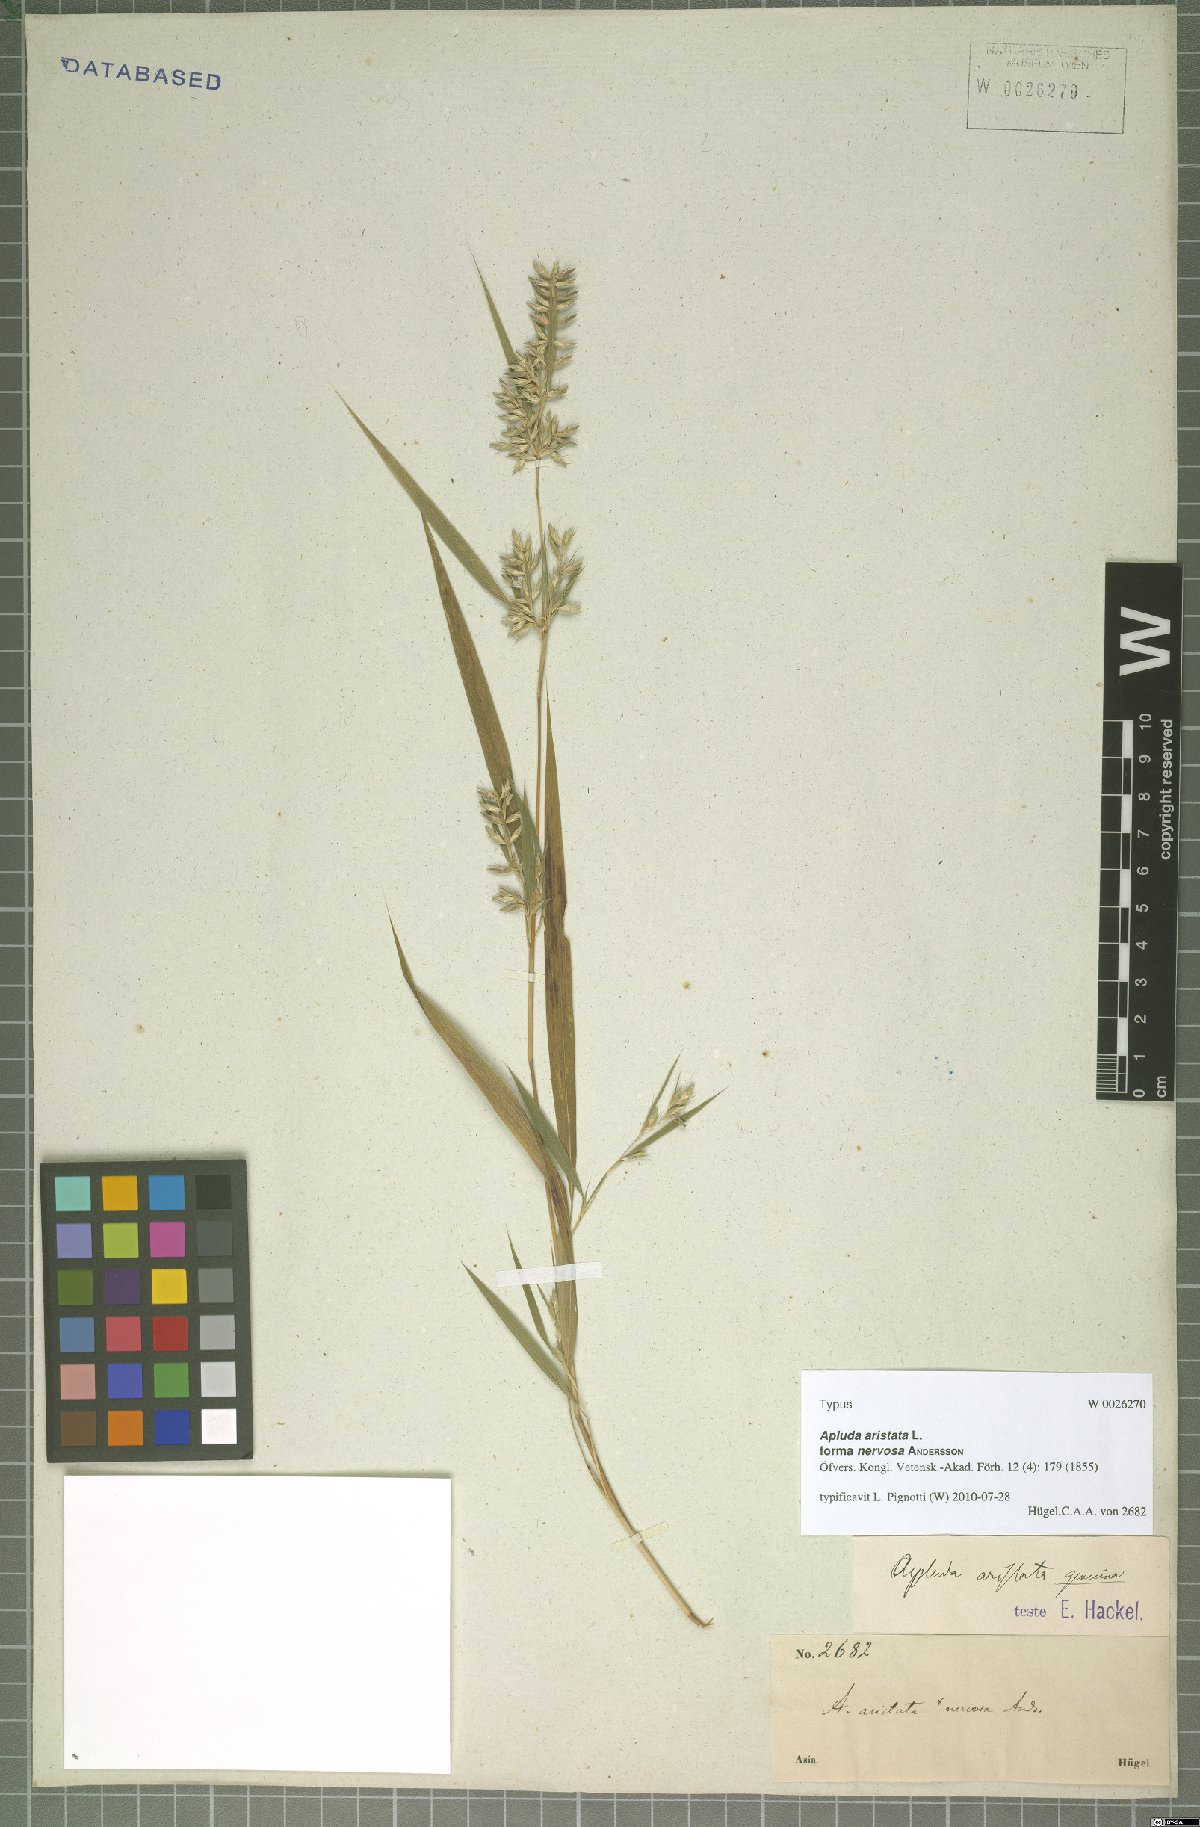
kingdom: Plantae
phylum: Tracheophyta
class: Liliopsida
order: Poales
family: Poaceae
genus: Apluda
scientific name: Apluda mutica
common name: Mauritian grass
